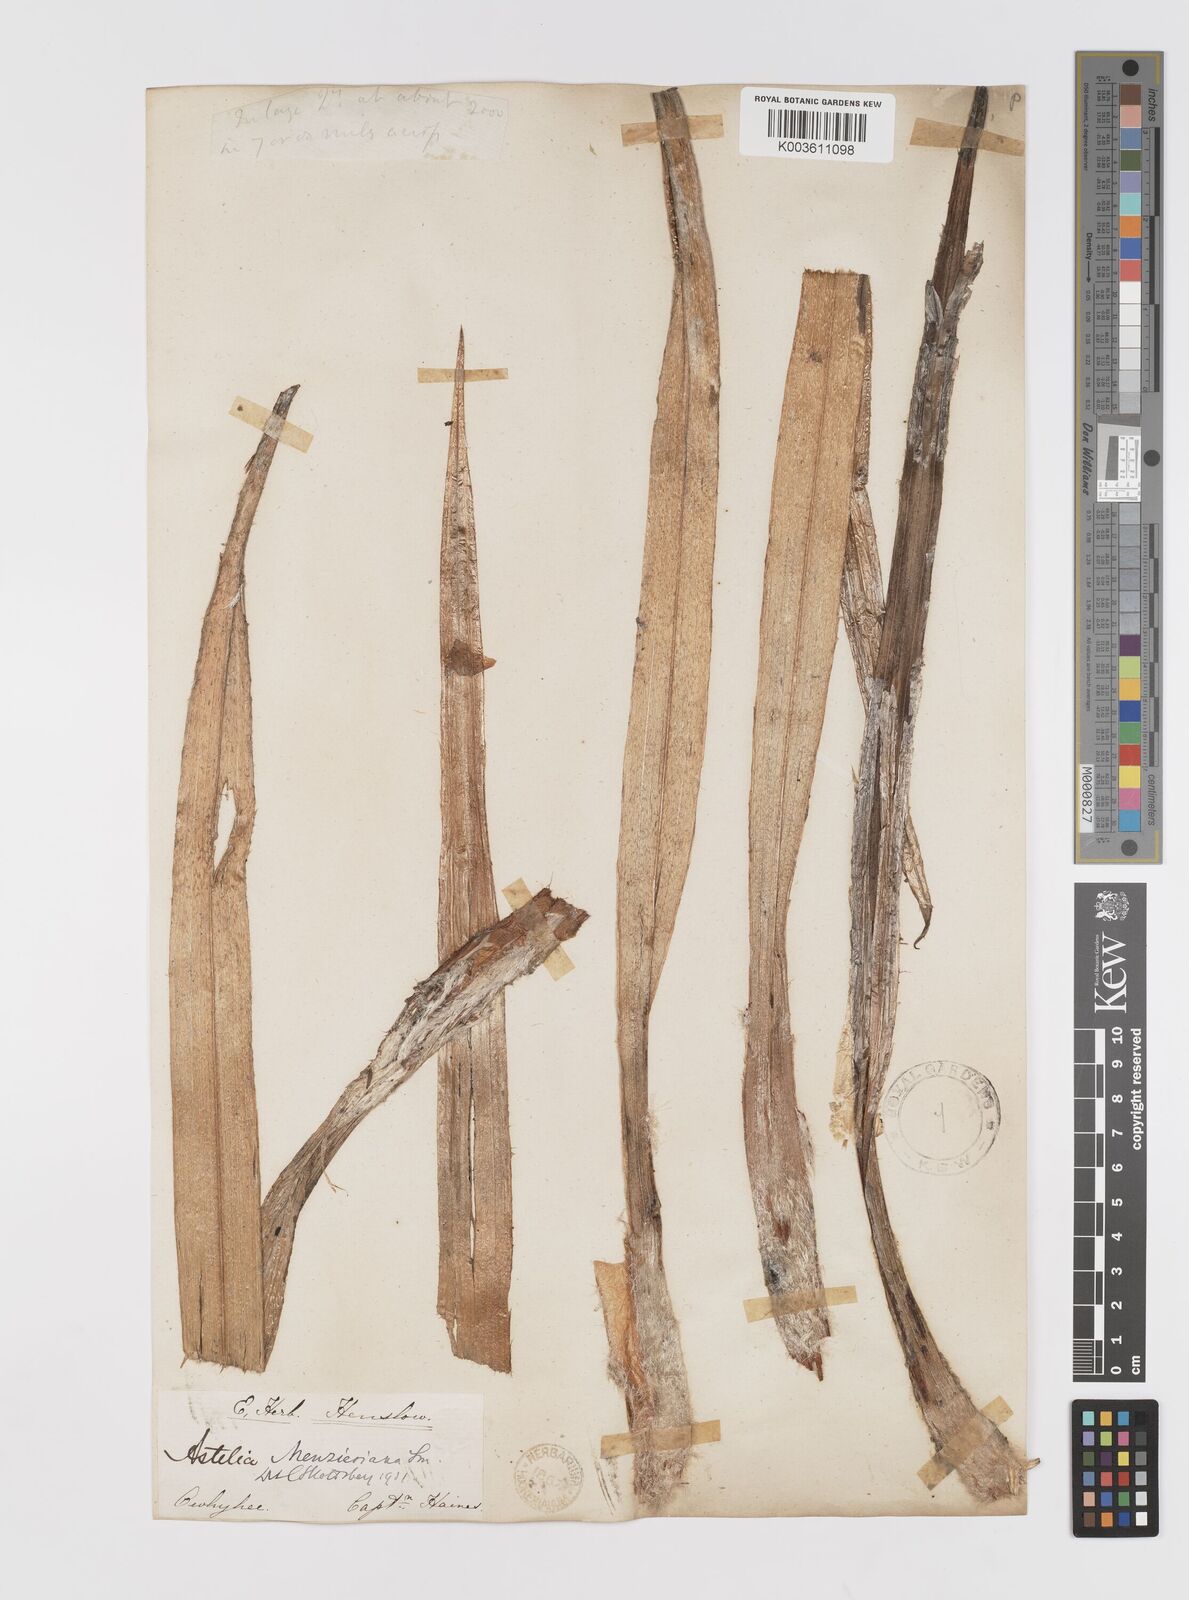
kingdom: Plantae
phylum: Tracheophyta
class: Liliopsida
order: Asparagales
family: Asteliaceae
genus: Astelia
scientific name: Astelia menziesiana
